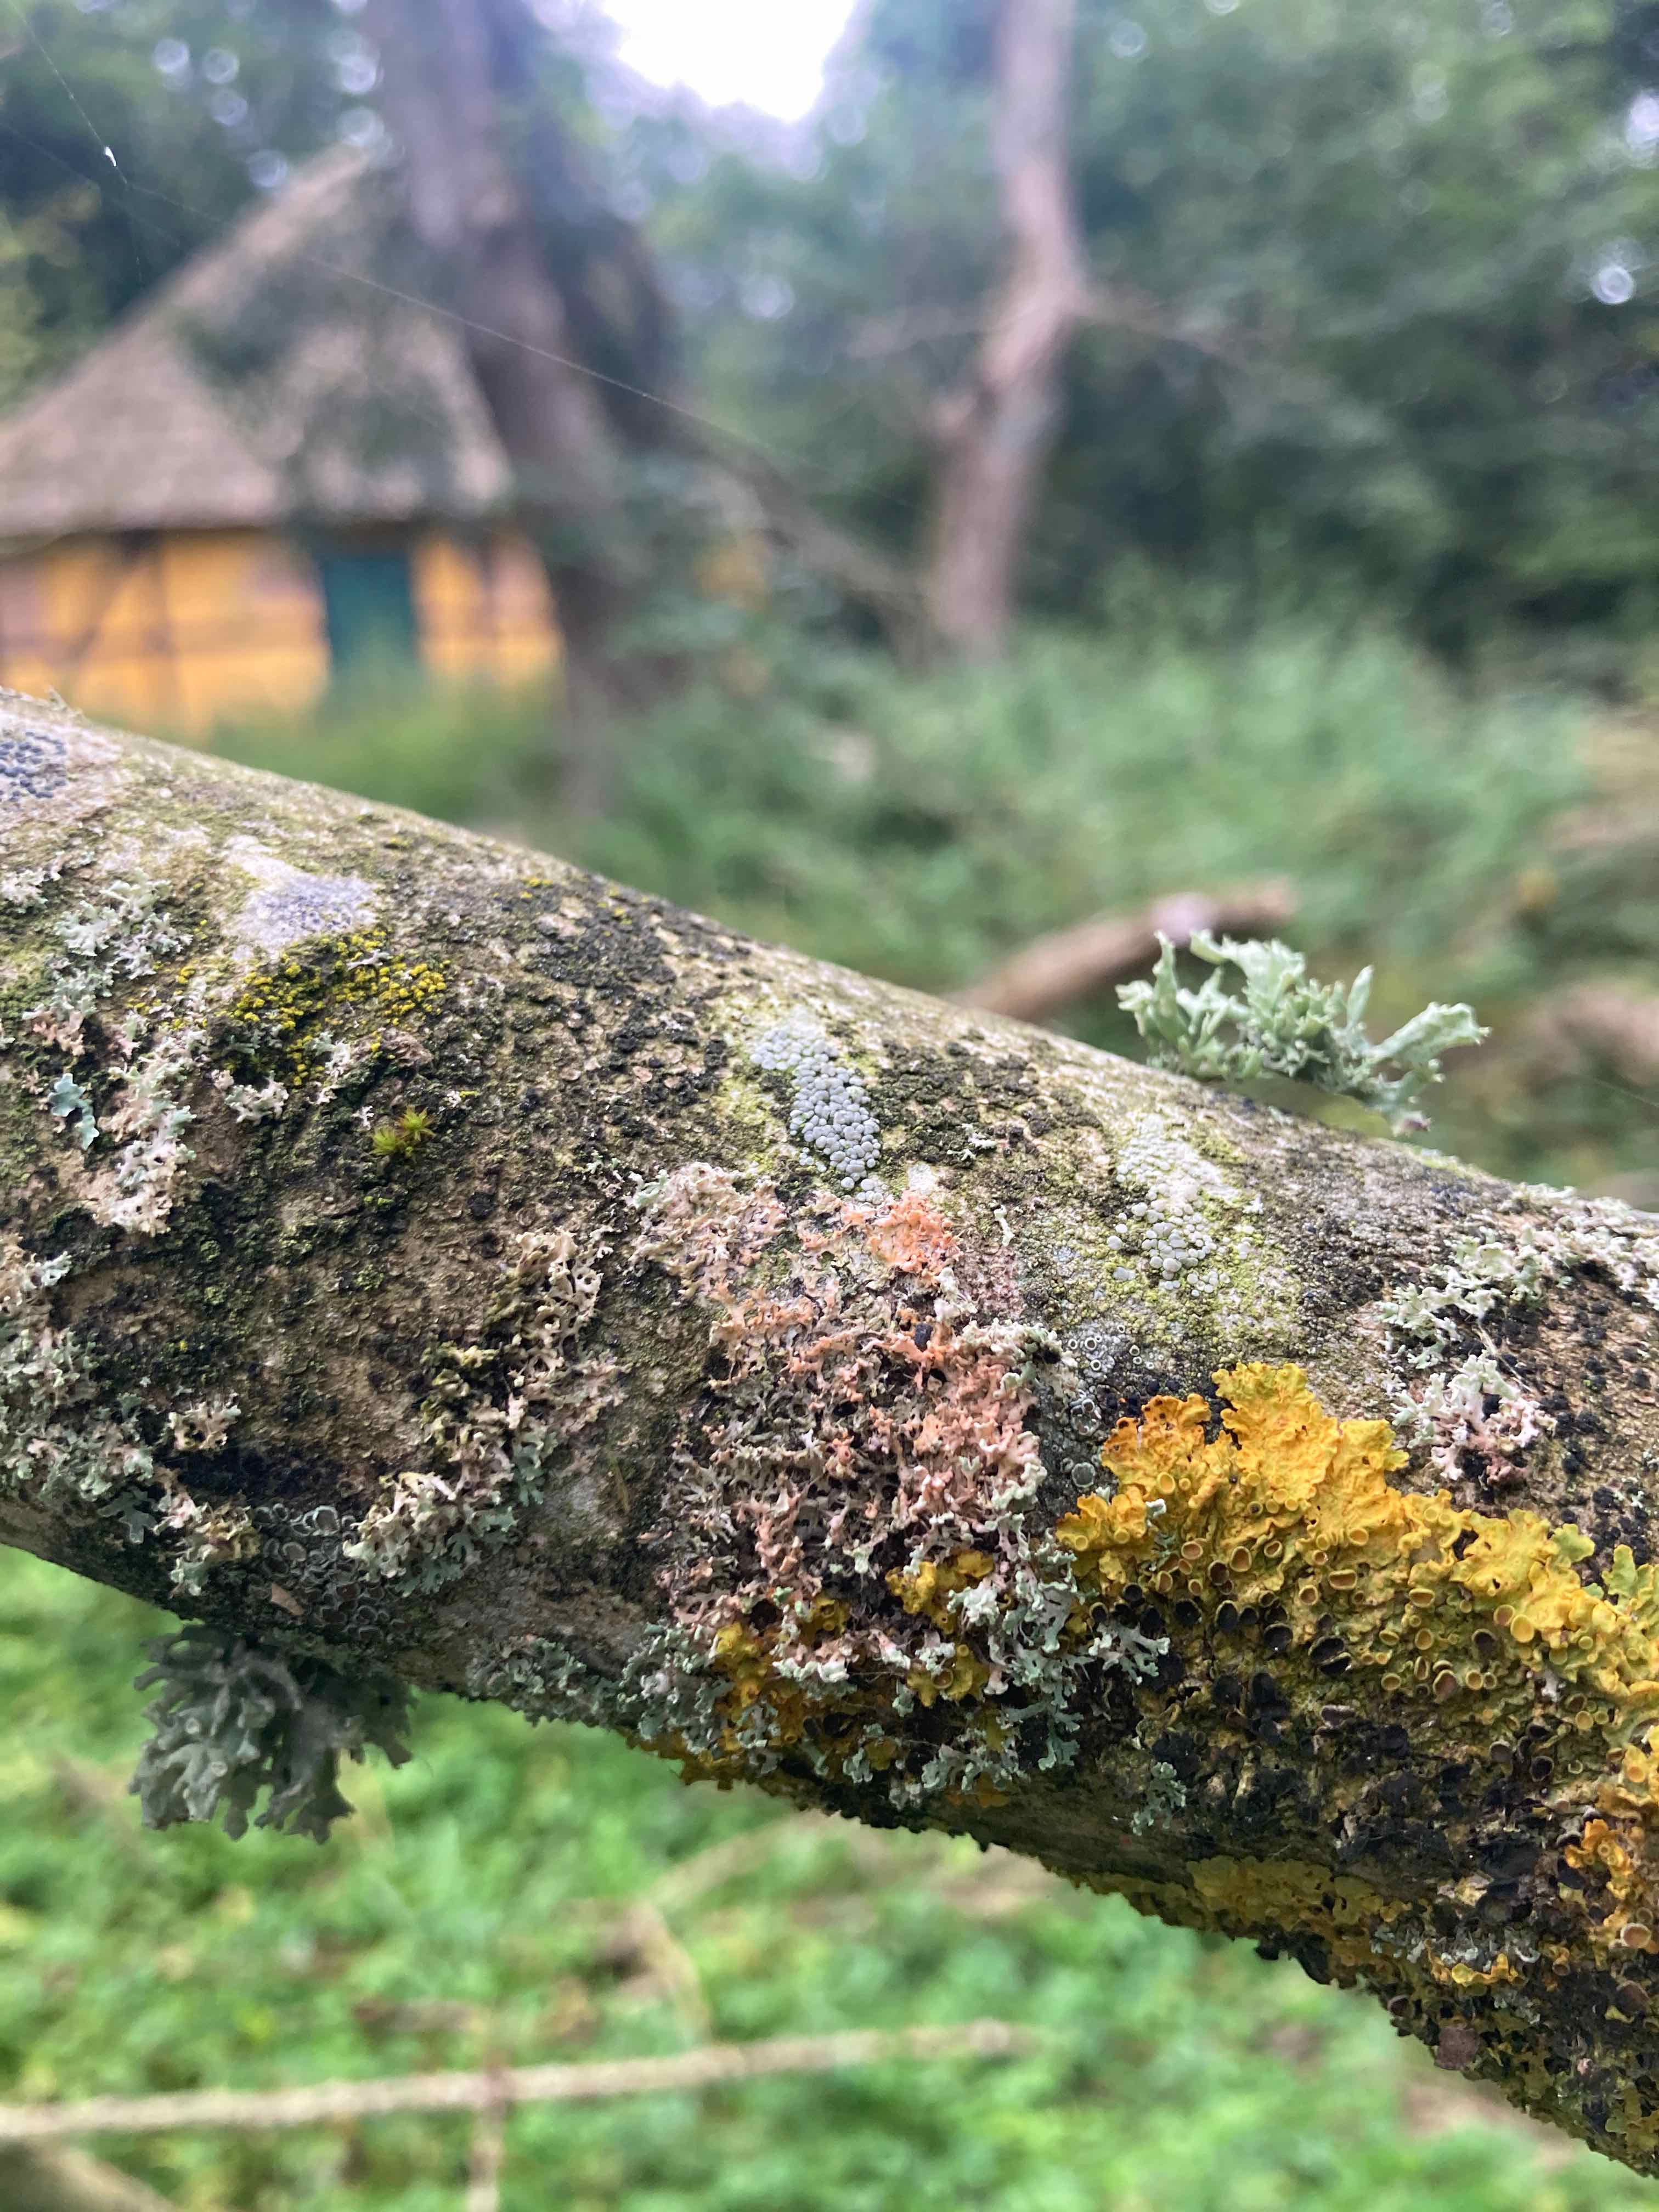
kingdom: Fungi
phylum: Basidiomycota
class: Agaricomycetes
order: Corticiales
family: Corticiaceae
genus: Erythricium
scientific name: Erythricium aurantiacum
